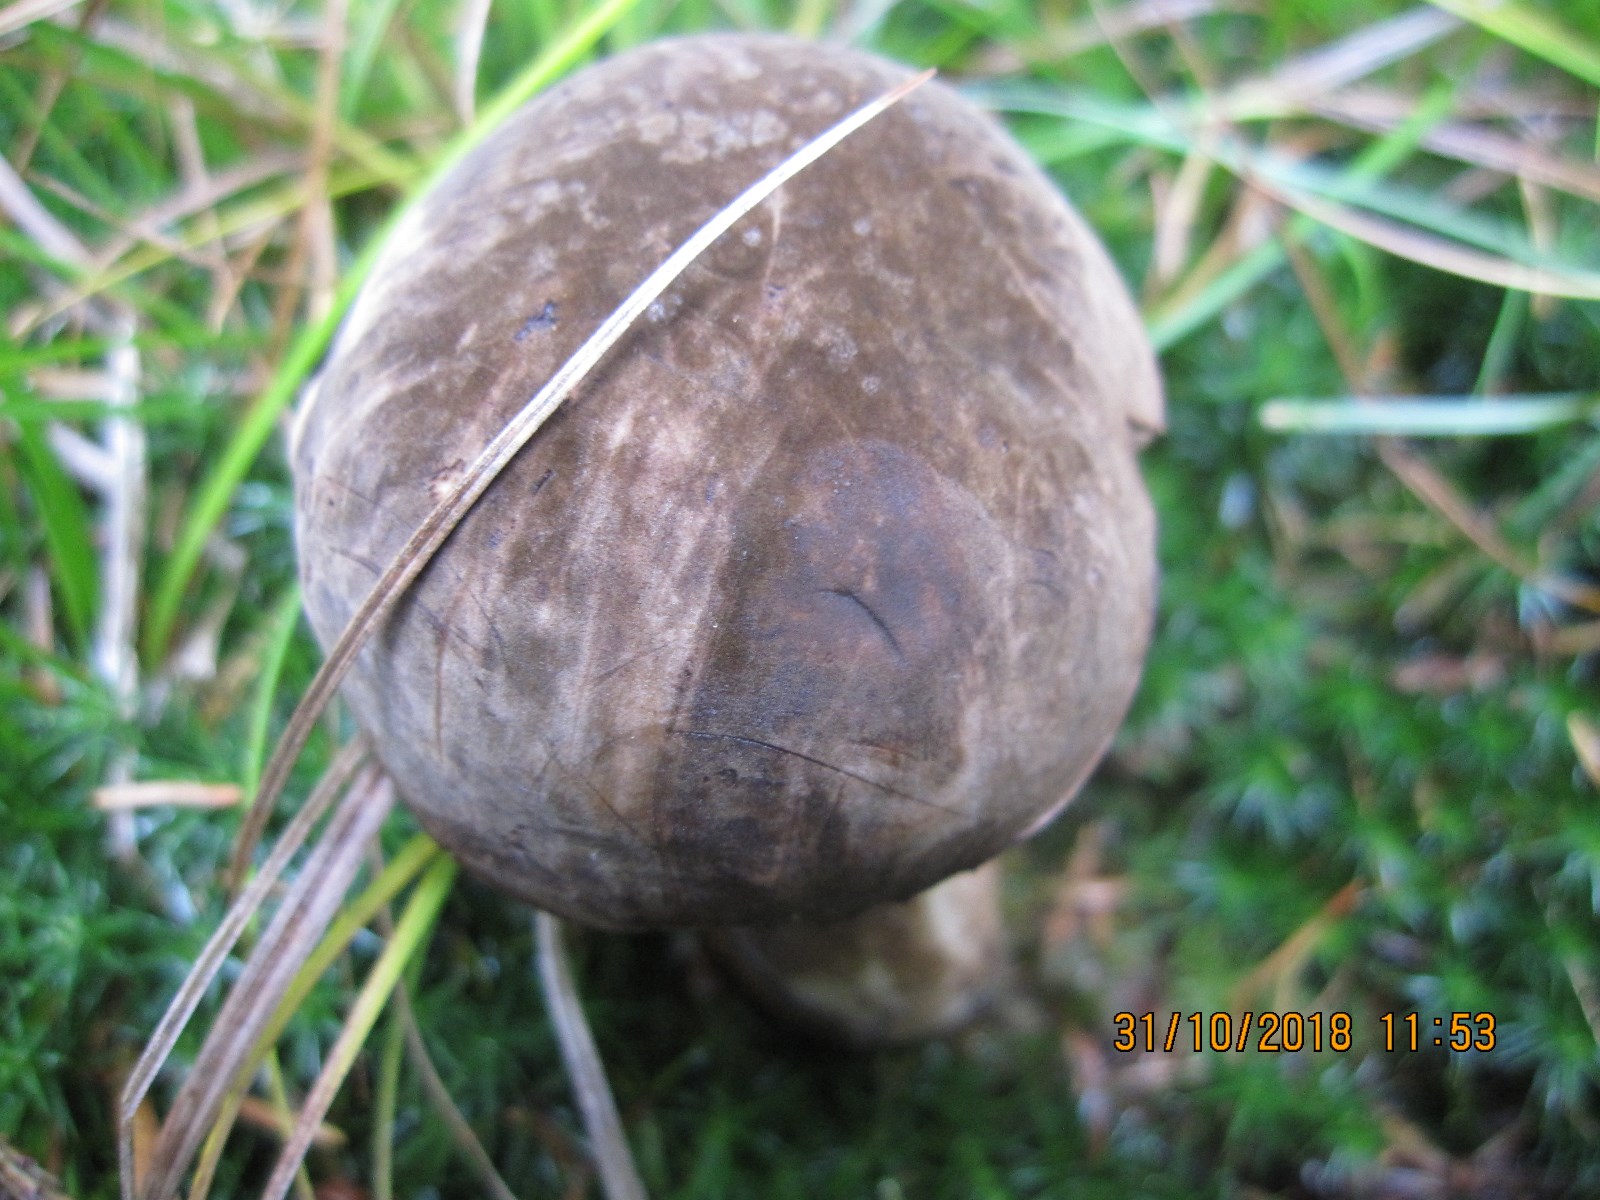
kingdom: Fungi
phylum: Basidiomycota
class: Agaricomycetes
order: Boletales
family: Boletaceae
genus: Porphyrellus
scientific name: Porphyrellus porphyrosporus
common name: sodrørhat
